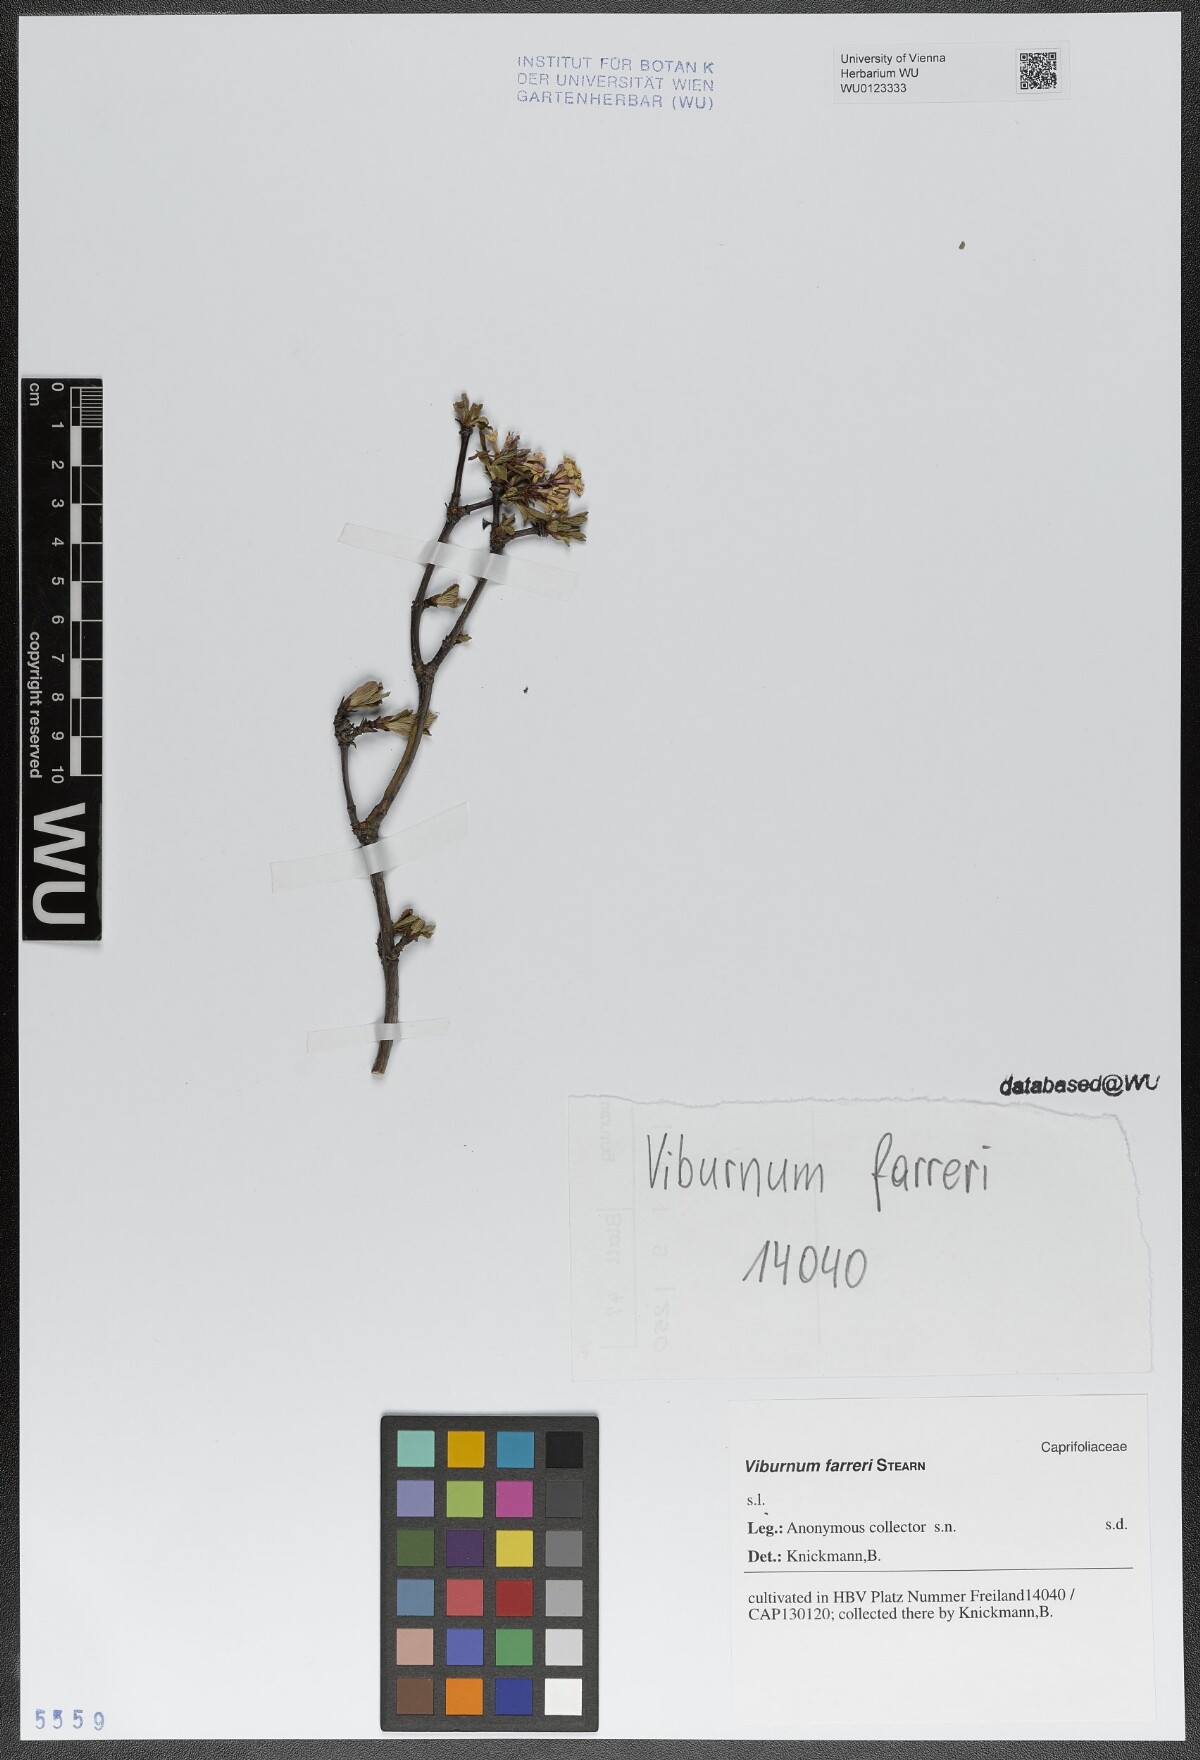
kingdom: Plantae
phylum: Tracheophyta
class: Magnoliopsida
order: Dipsacales
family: Viburnaceae
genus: Viburnum
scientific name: Viburnum farreri
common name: Farrer's viburnum
